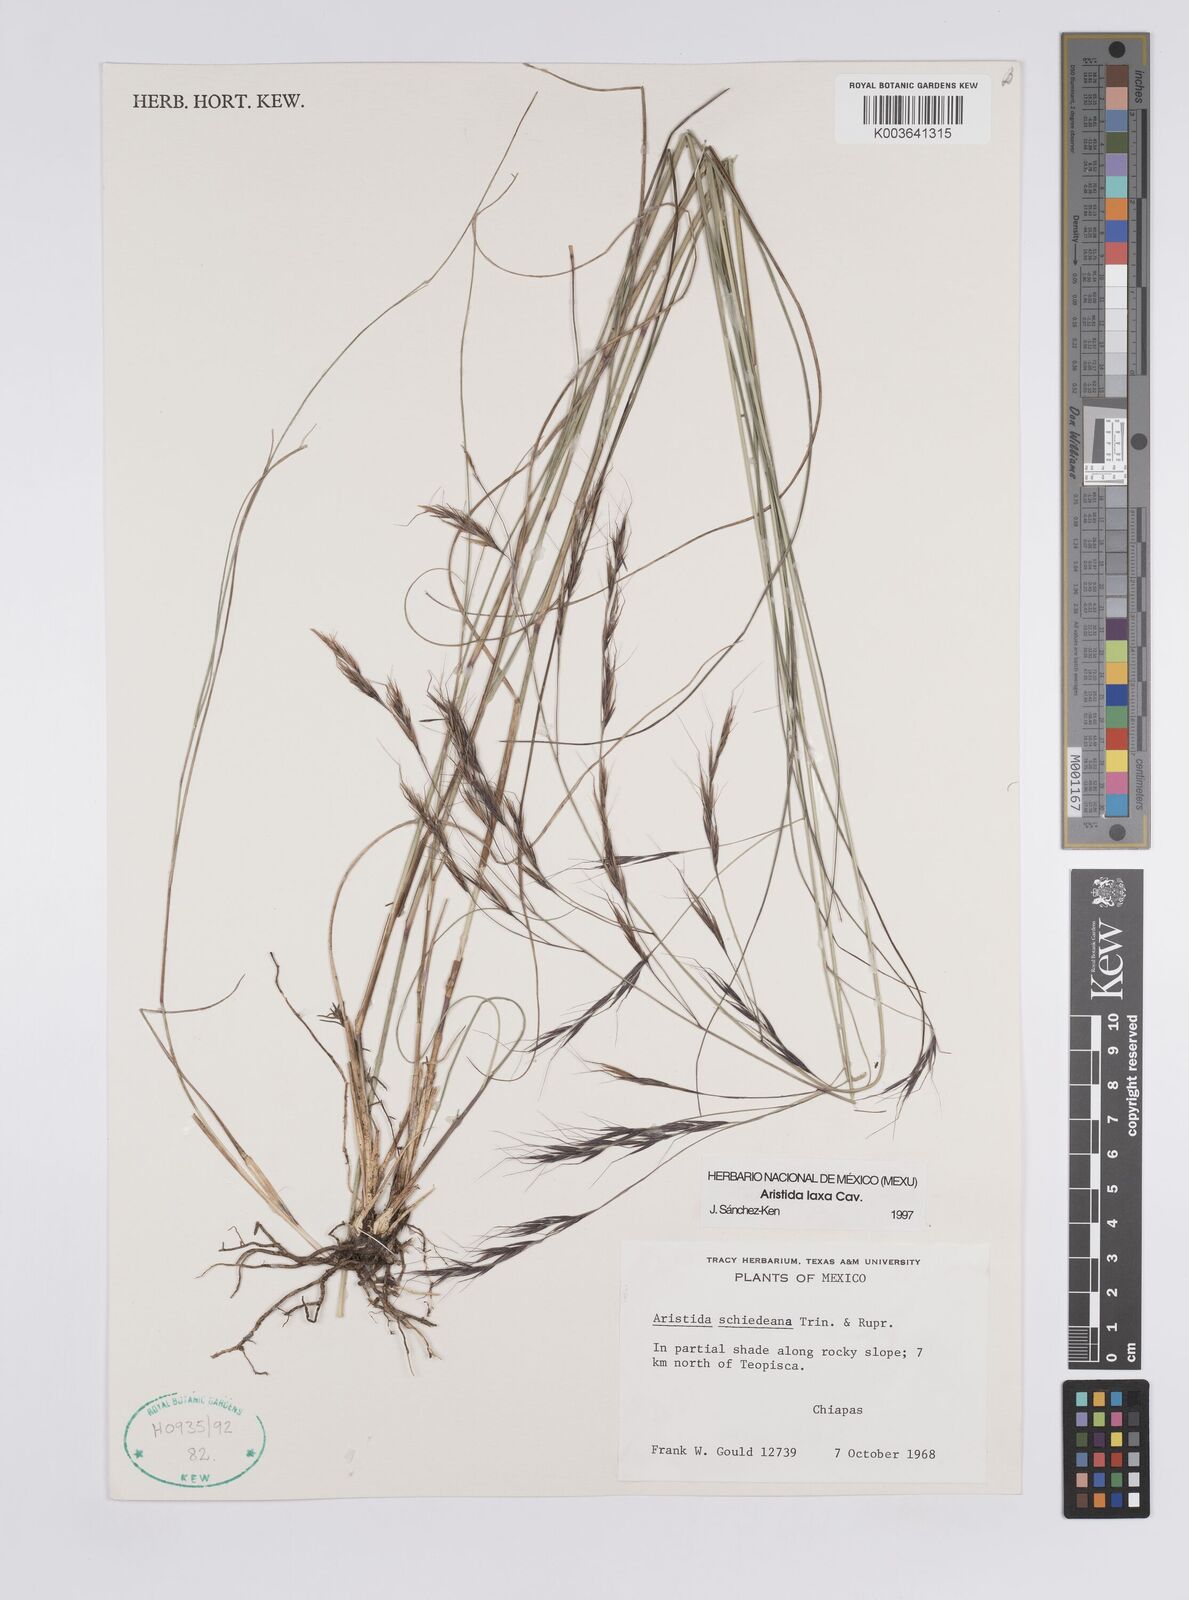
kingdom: Plantae
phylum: Tracheophyta
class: Liliopsida
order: Poales
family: Poaceae
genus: Aristida
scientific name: Aristida laxa
